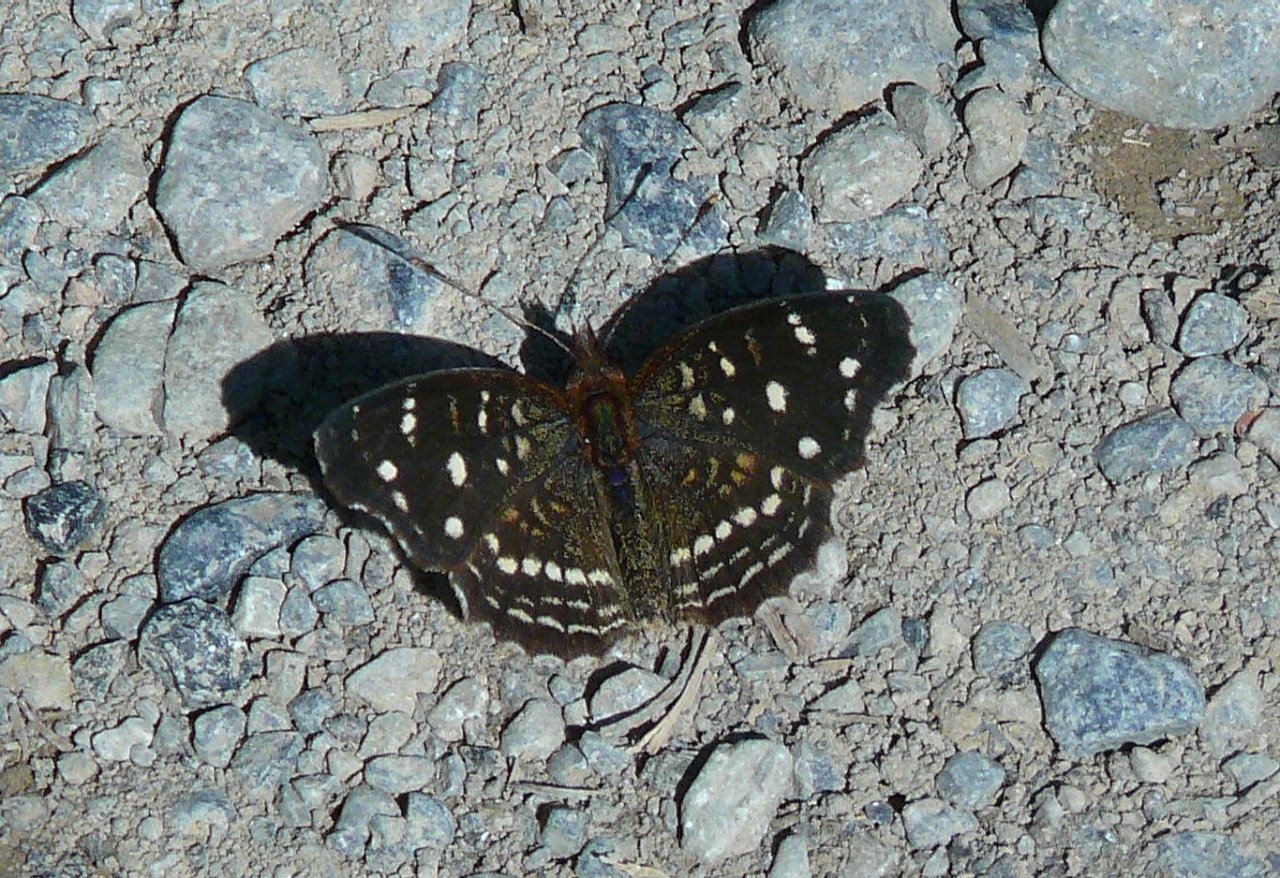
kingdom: Animalia
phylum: Arthropoda
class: Insecta
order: Lepidoptera
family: Nymphalidae
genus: Anthanassa
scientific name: Anthanassa ardys
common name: Ardys Crescent
